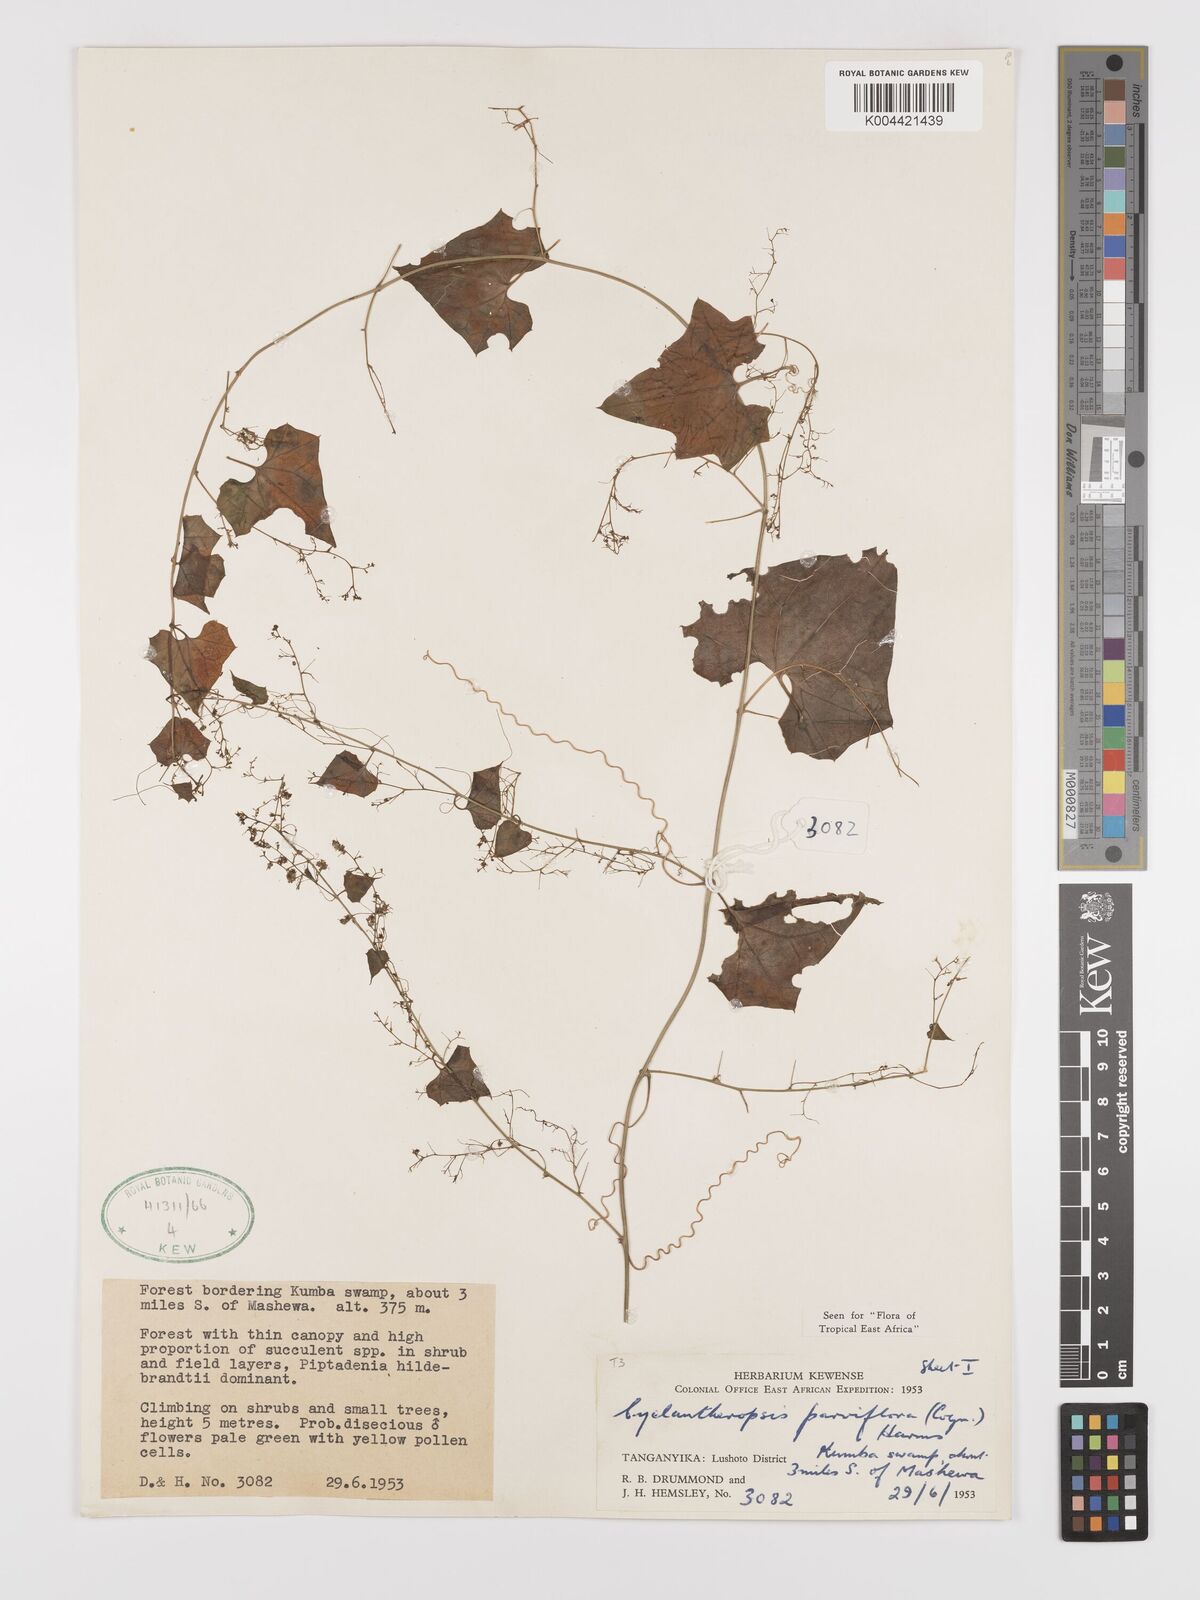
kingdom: Plantae
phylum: Tracheophyta
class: Magnoliopsida
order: Cucurbitales
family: Cucurbitaceae
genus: Cyclantheropsis
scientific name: Cyclantheropsis parviflora
